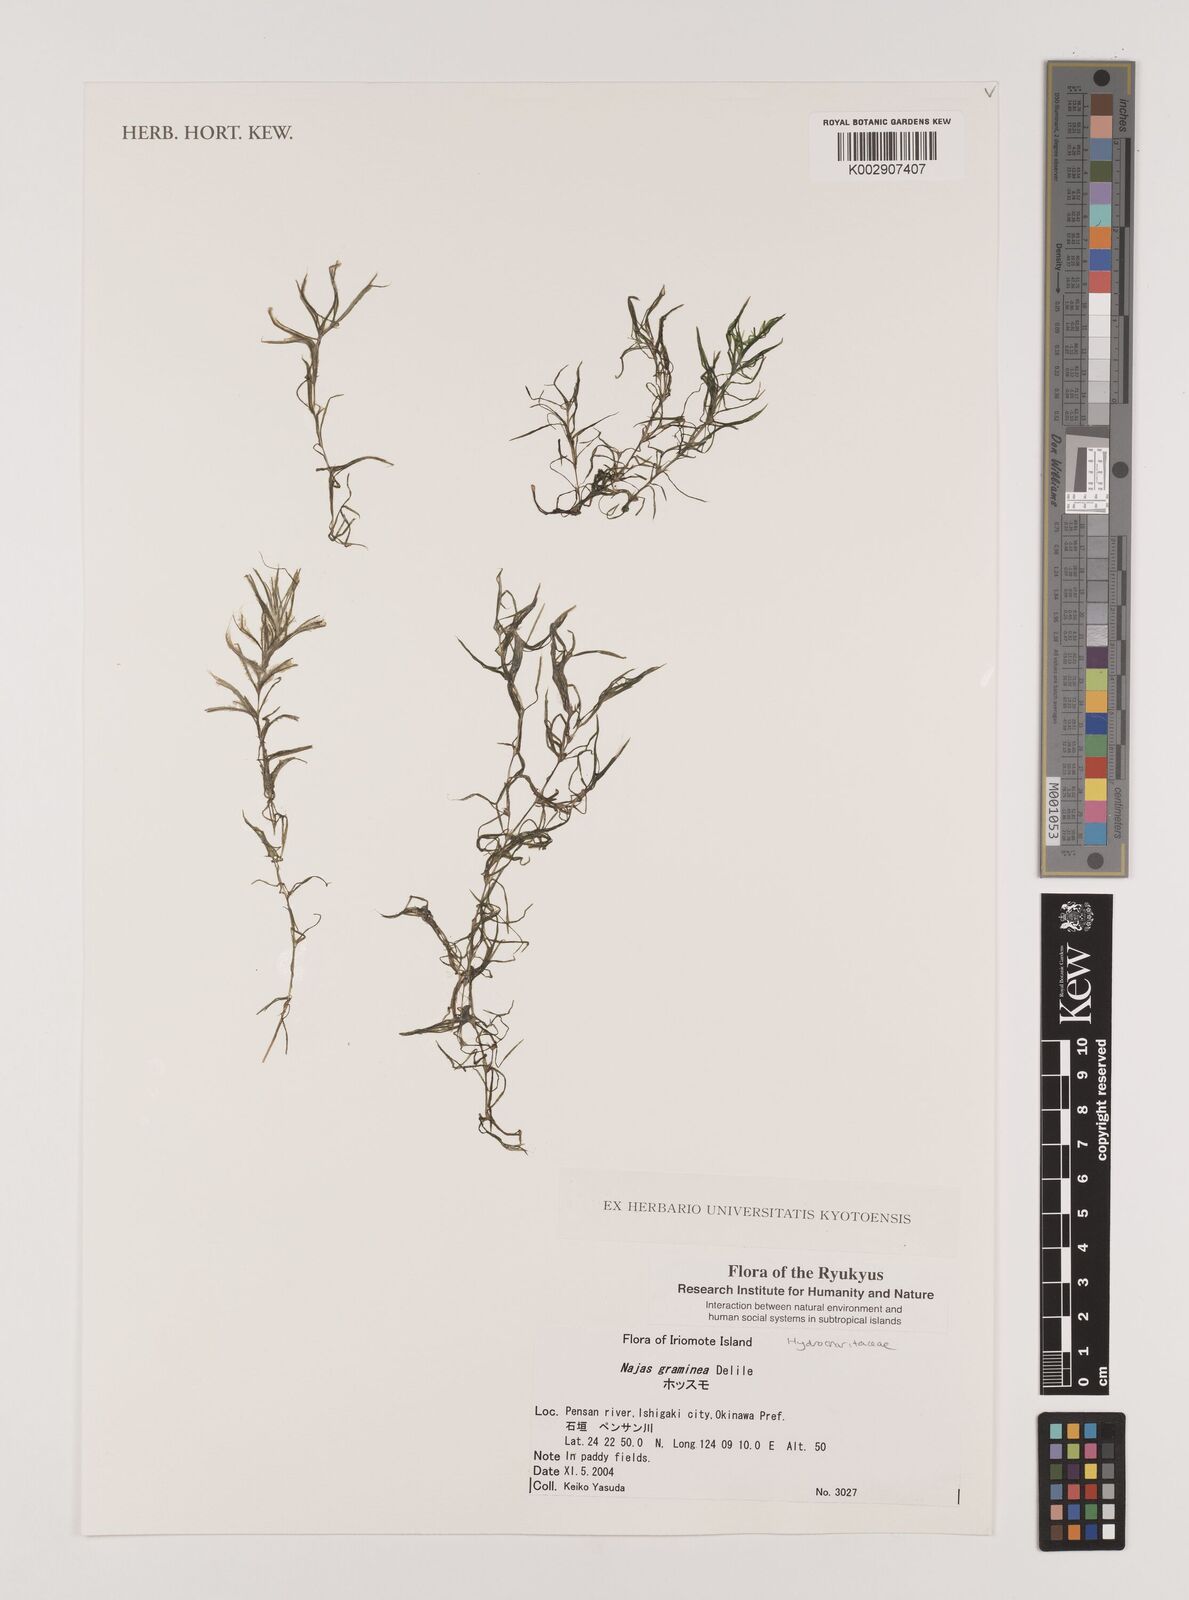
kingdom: Plantae
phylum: Tracheophyta
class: Liliopsida
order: Alismatales
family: Hydrocharitaceae
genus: Najas
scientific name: Najas graminea
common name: Ricefield waternymph
